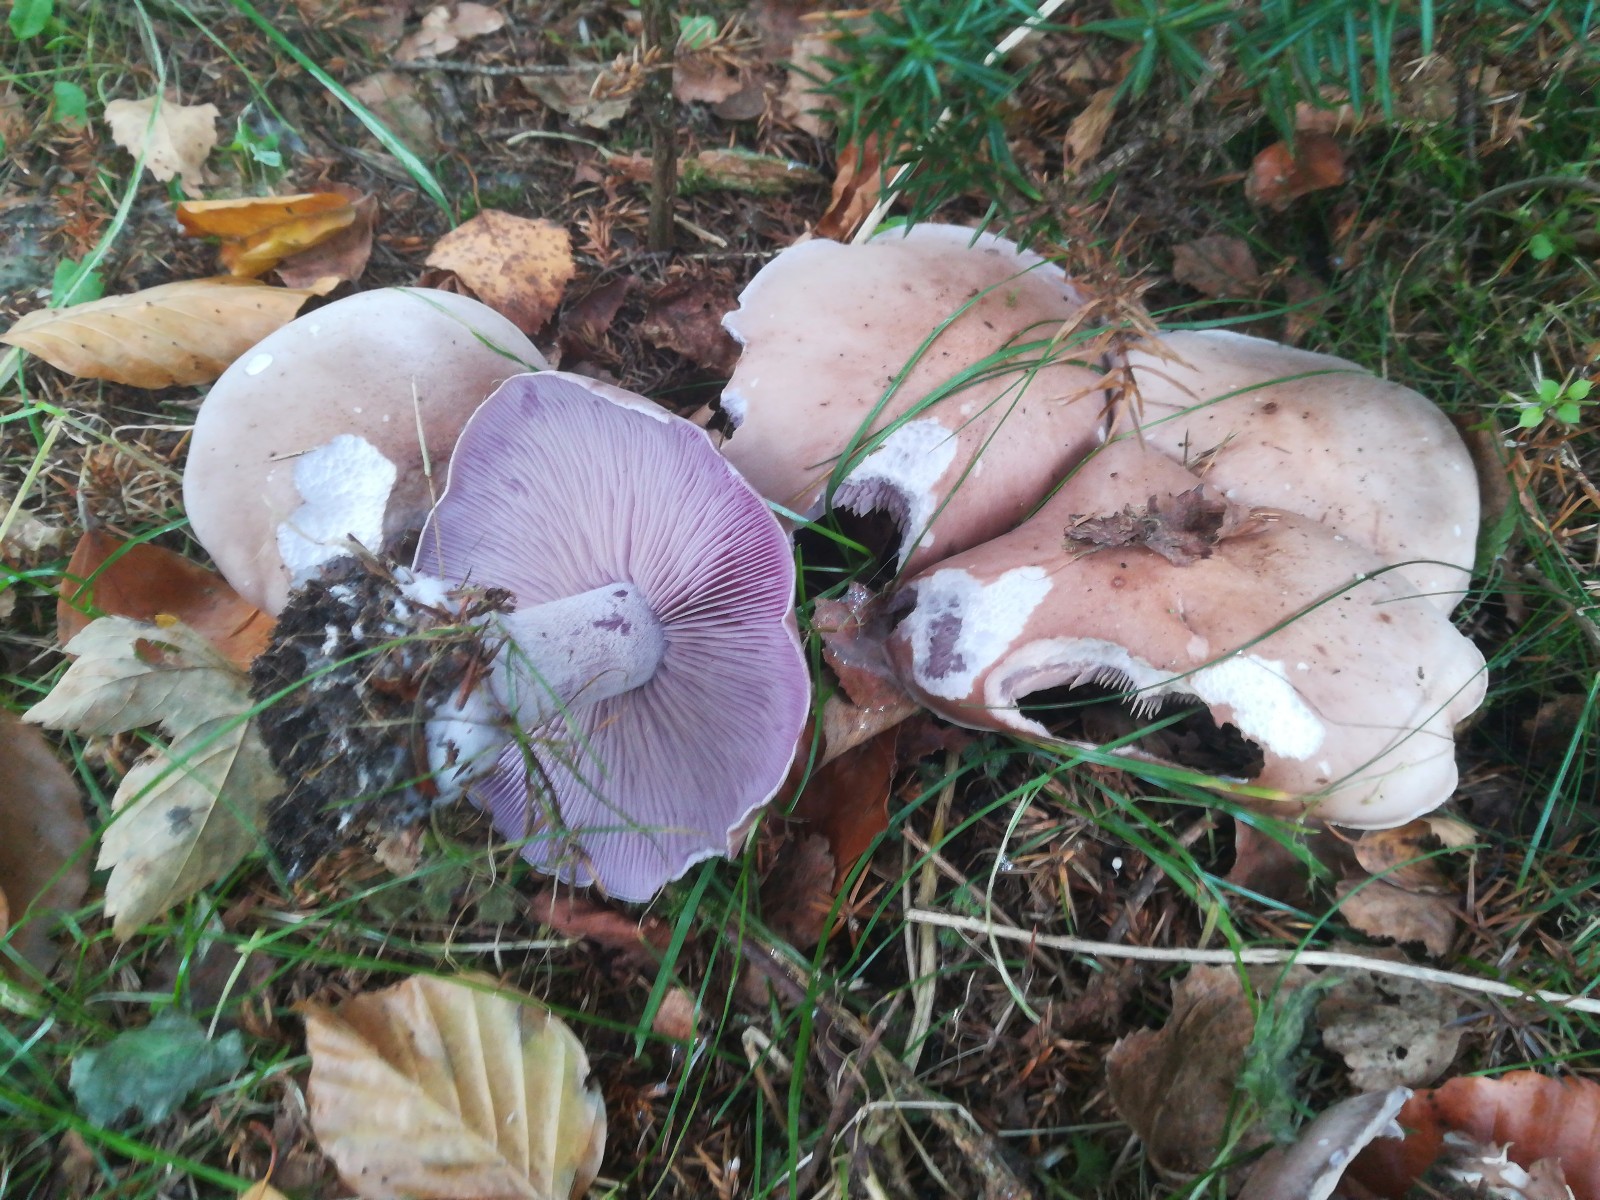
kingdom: Fungi
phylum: Basidiomycota
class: Agaricomycetes
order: Agaricales
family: Tricholomataceae
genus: Lepista
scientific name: Lepista nuda
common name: violet hekseringshat
